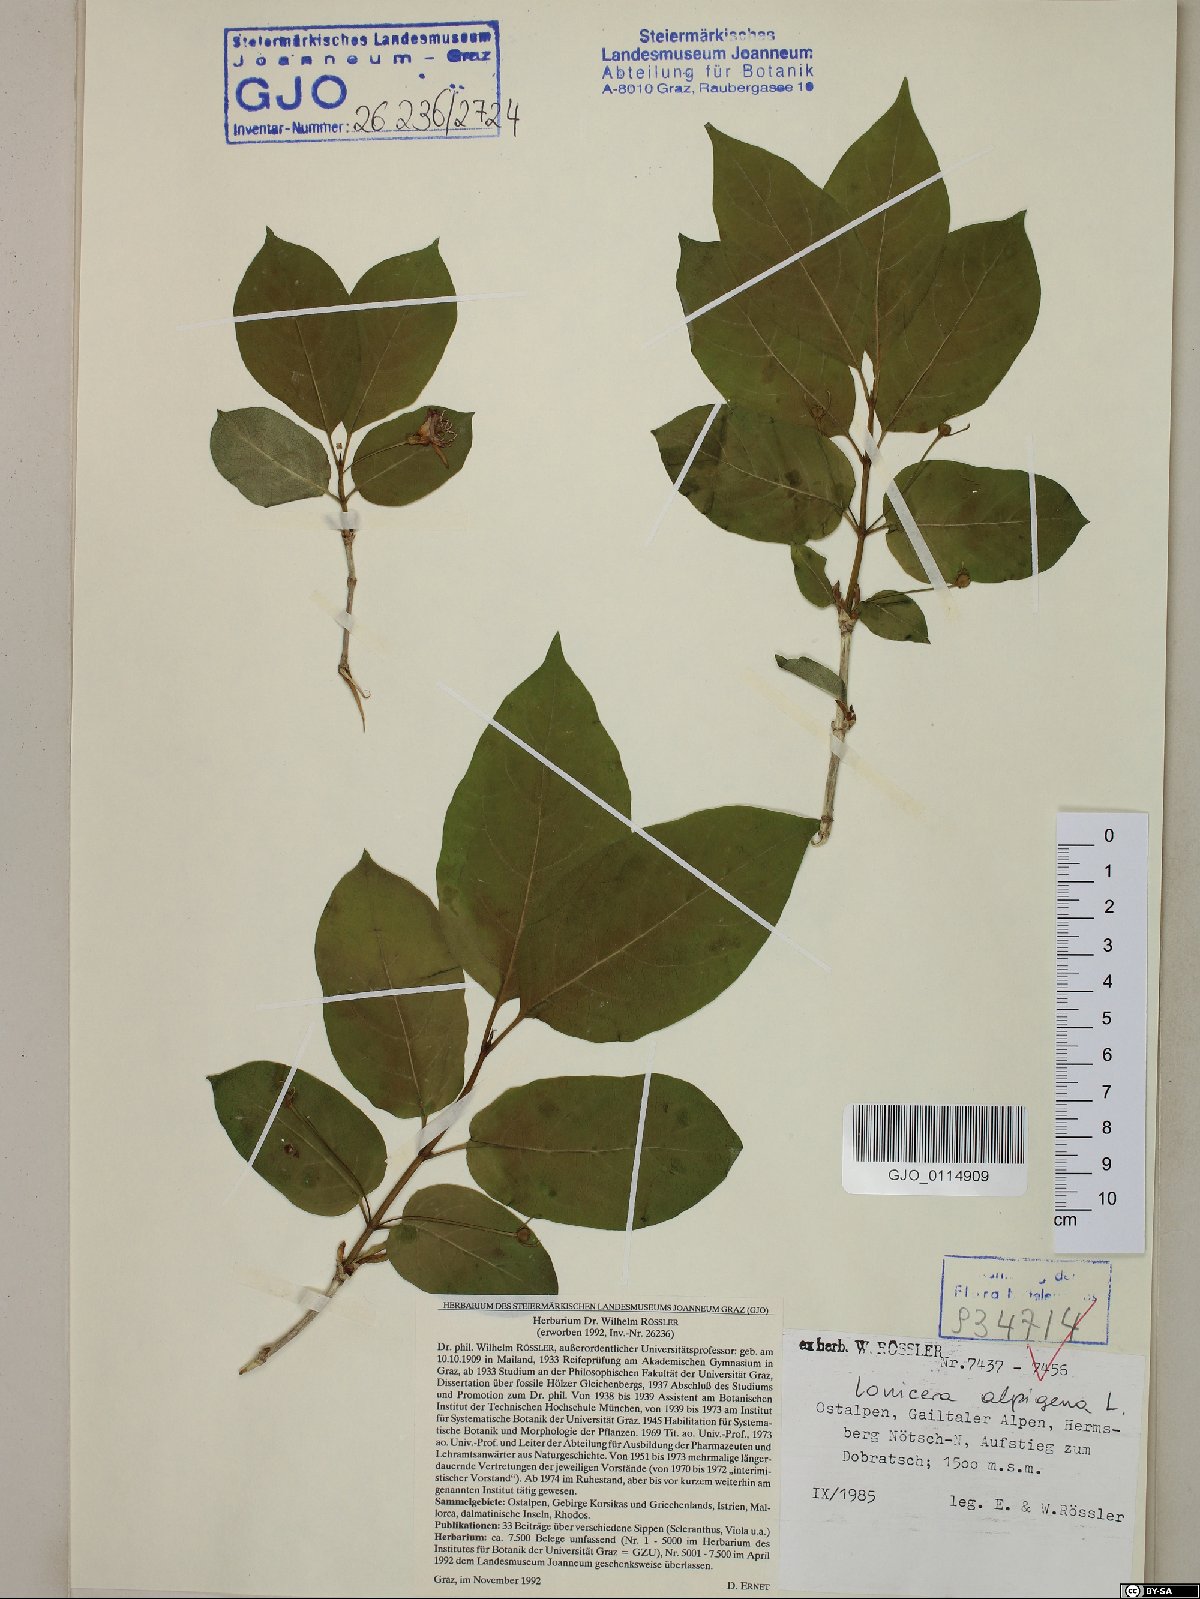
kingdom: Plantae
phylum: Tracheophyta
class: Magnoliopsida
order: Dipsacales
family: Caprifoliaceae
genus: Lonicera
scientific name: Lonicera alpigena
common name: Alpine honeysuckle
